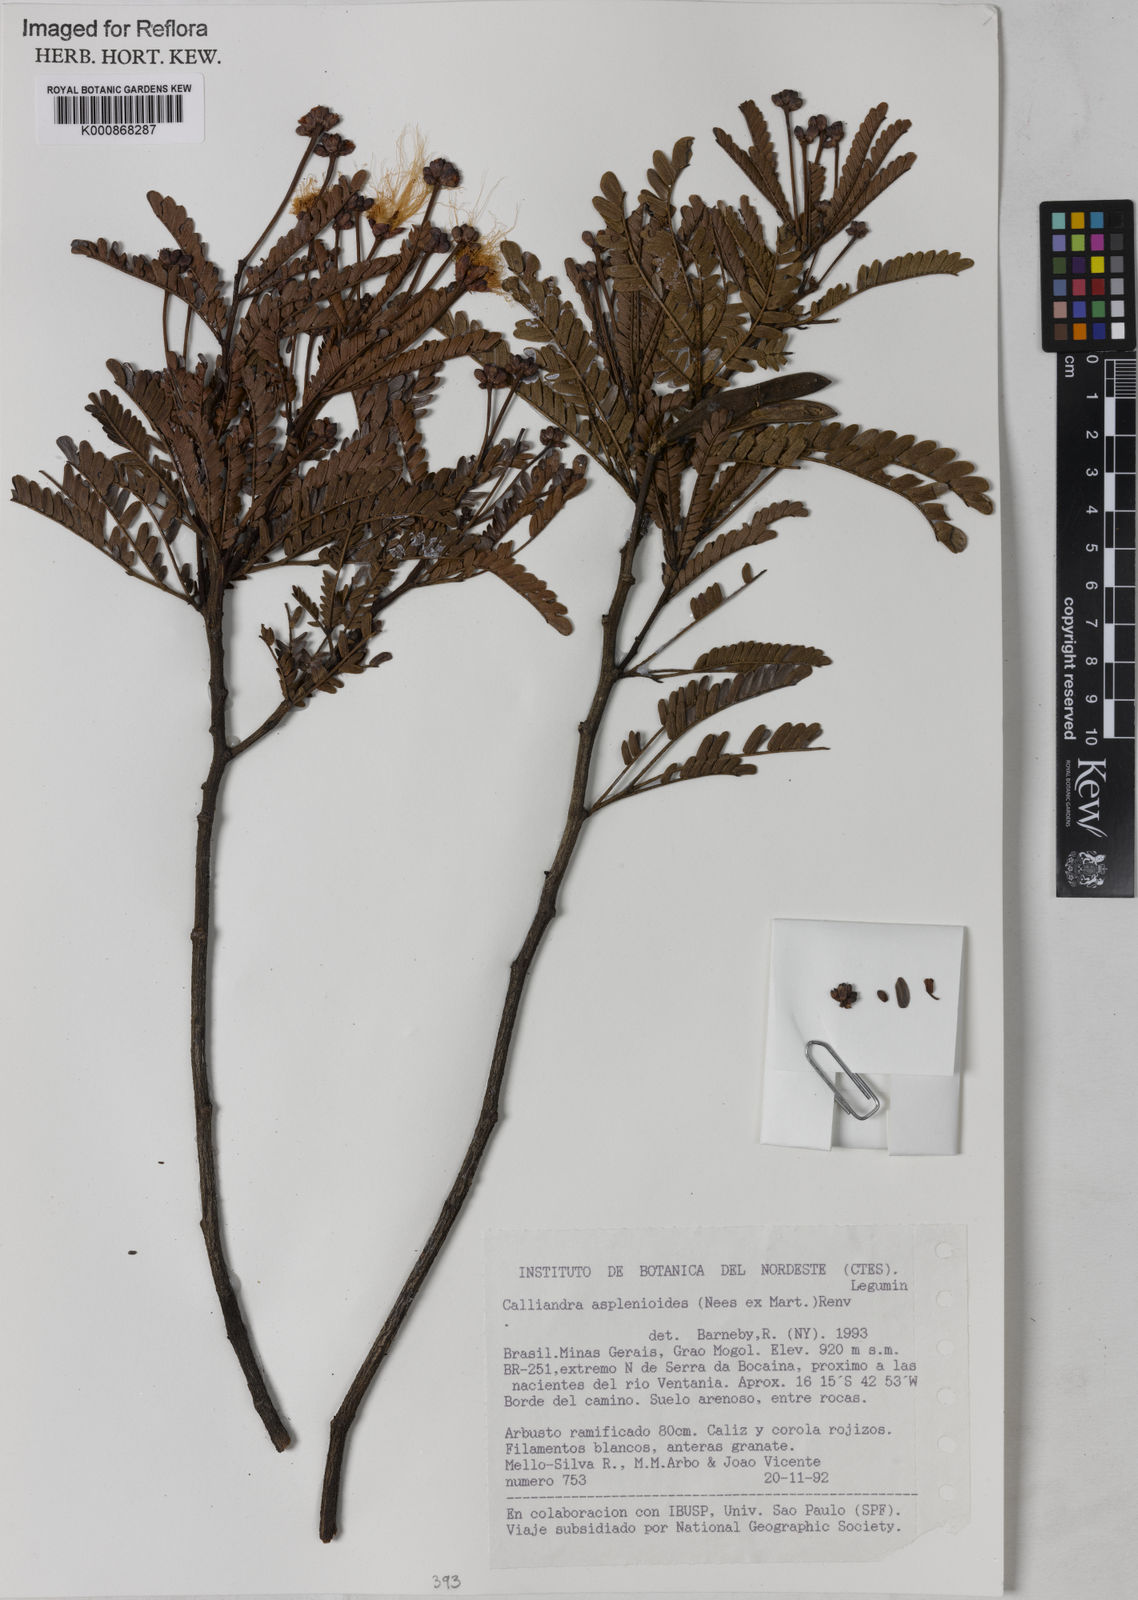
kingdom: Plantae
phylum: Tracheophyta
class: Magnoliopsida
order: Fabales
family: Fabaceae
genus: Calliandra
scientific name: Calliandra
